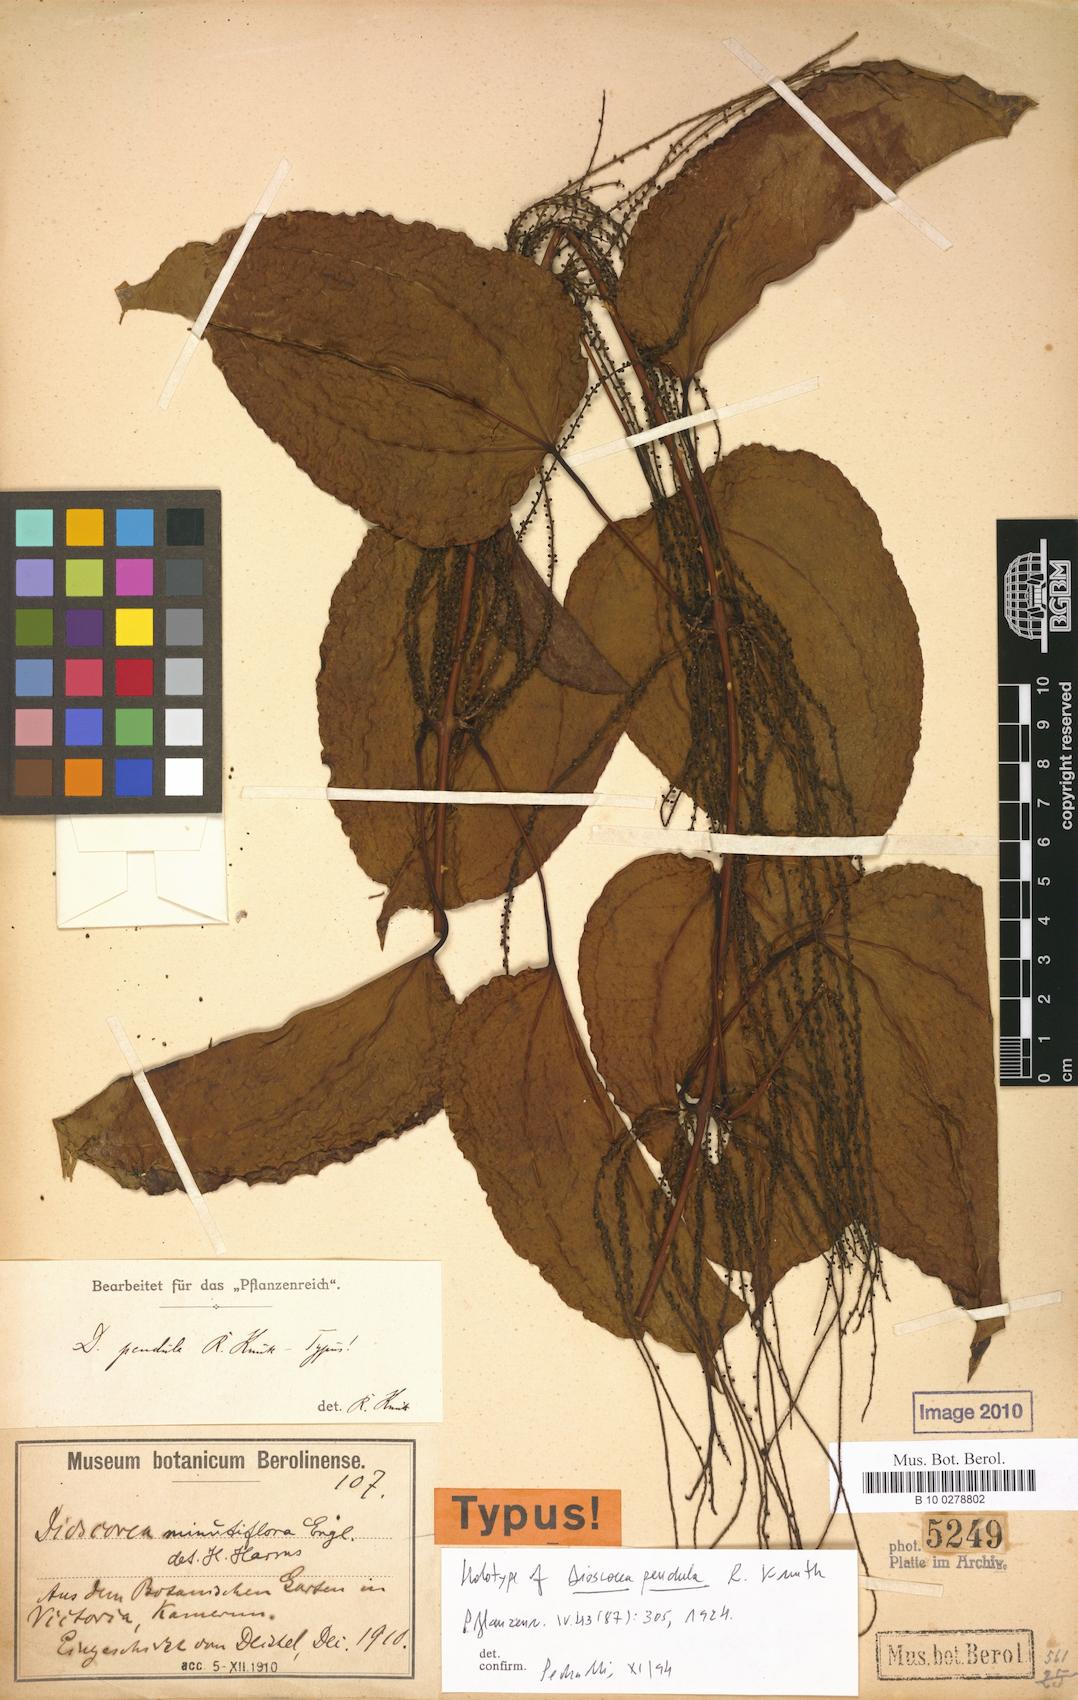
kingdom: Plantae
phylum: Tracheophyta
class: Liliopsida
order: Dioscoreales
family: Dioscoreaceae
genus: Dioscorea
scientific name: Dioscorea minutiflora
